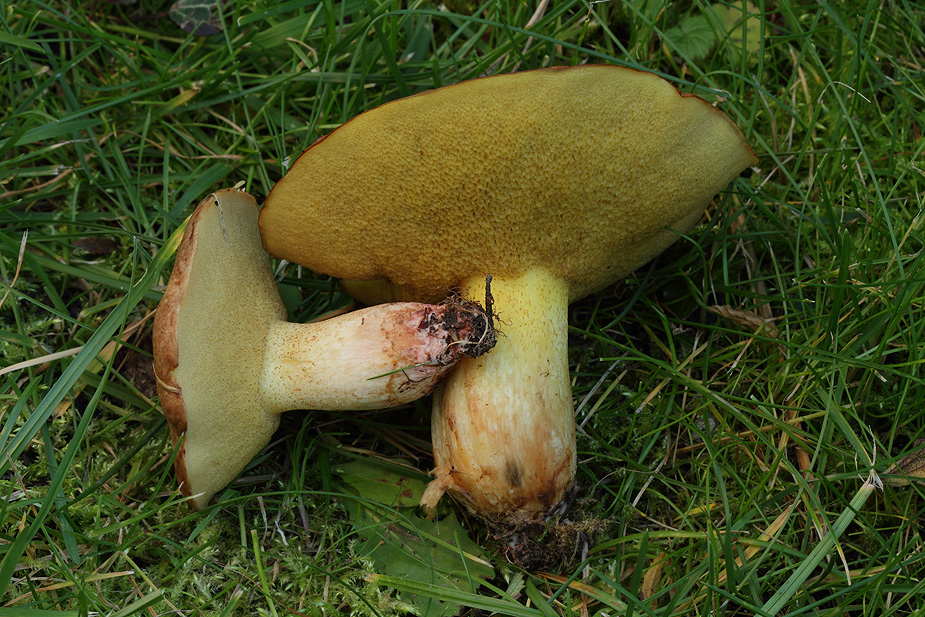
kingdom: Fungi
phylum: Basidiomycota
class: Agaricomycetes
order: Boletales
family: Suillaceae
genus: Suillus
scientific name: Suillus collinitus
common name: rosafodet slimrørhat
